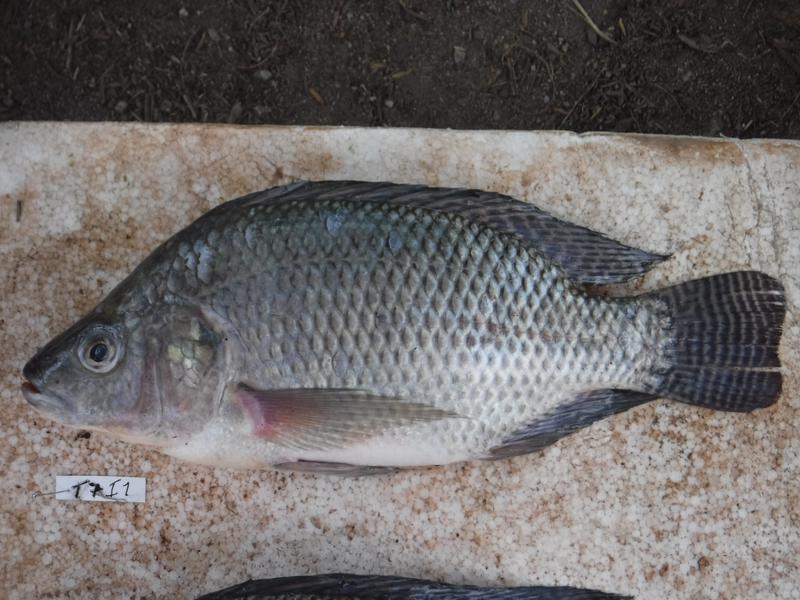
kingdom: Animalia
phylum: Chordata
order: Perciformes
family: Cichlidae
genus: Oreochromis
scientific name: Oreochromis niloticus
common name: Nile tilapia
